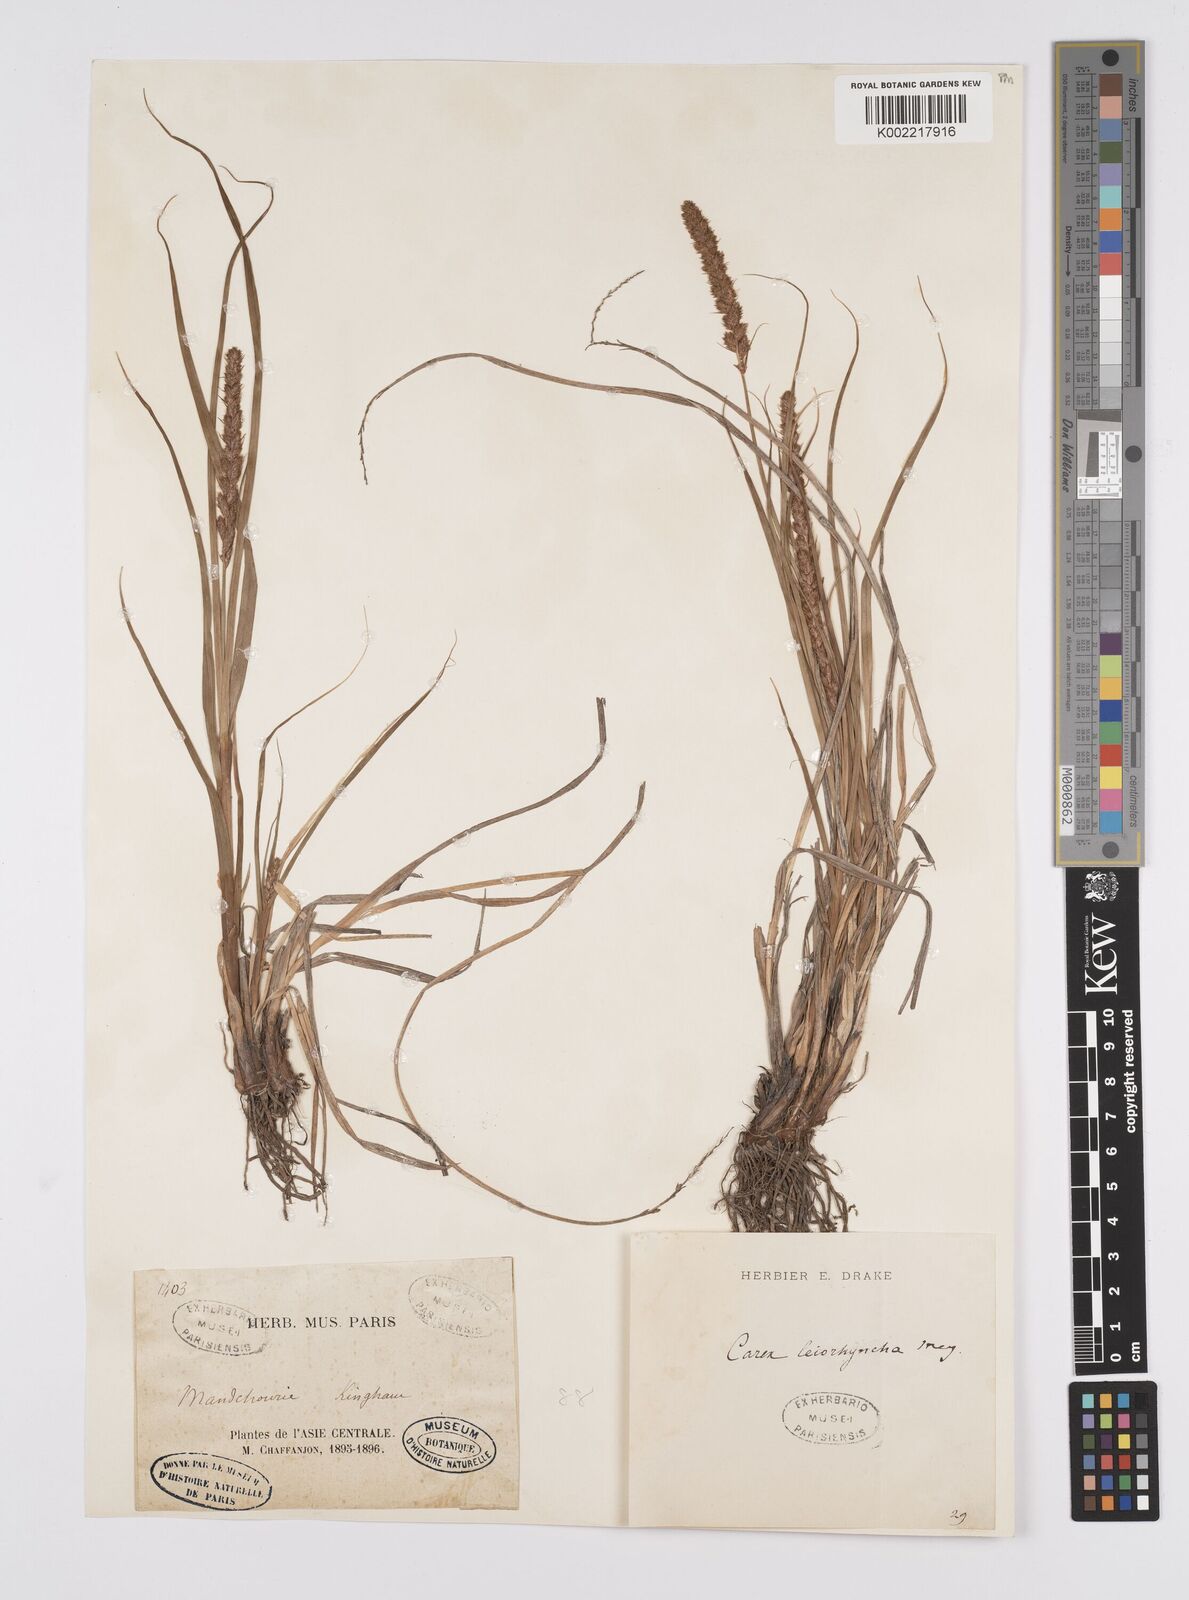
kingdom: Plantae
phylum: Tracheophyta
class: Liliopsida
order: Poales
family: Cyperaceae
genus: Carex
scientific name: Carex leiorhyncha
